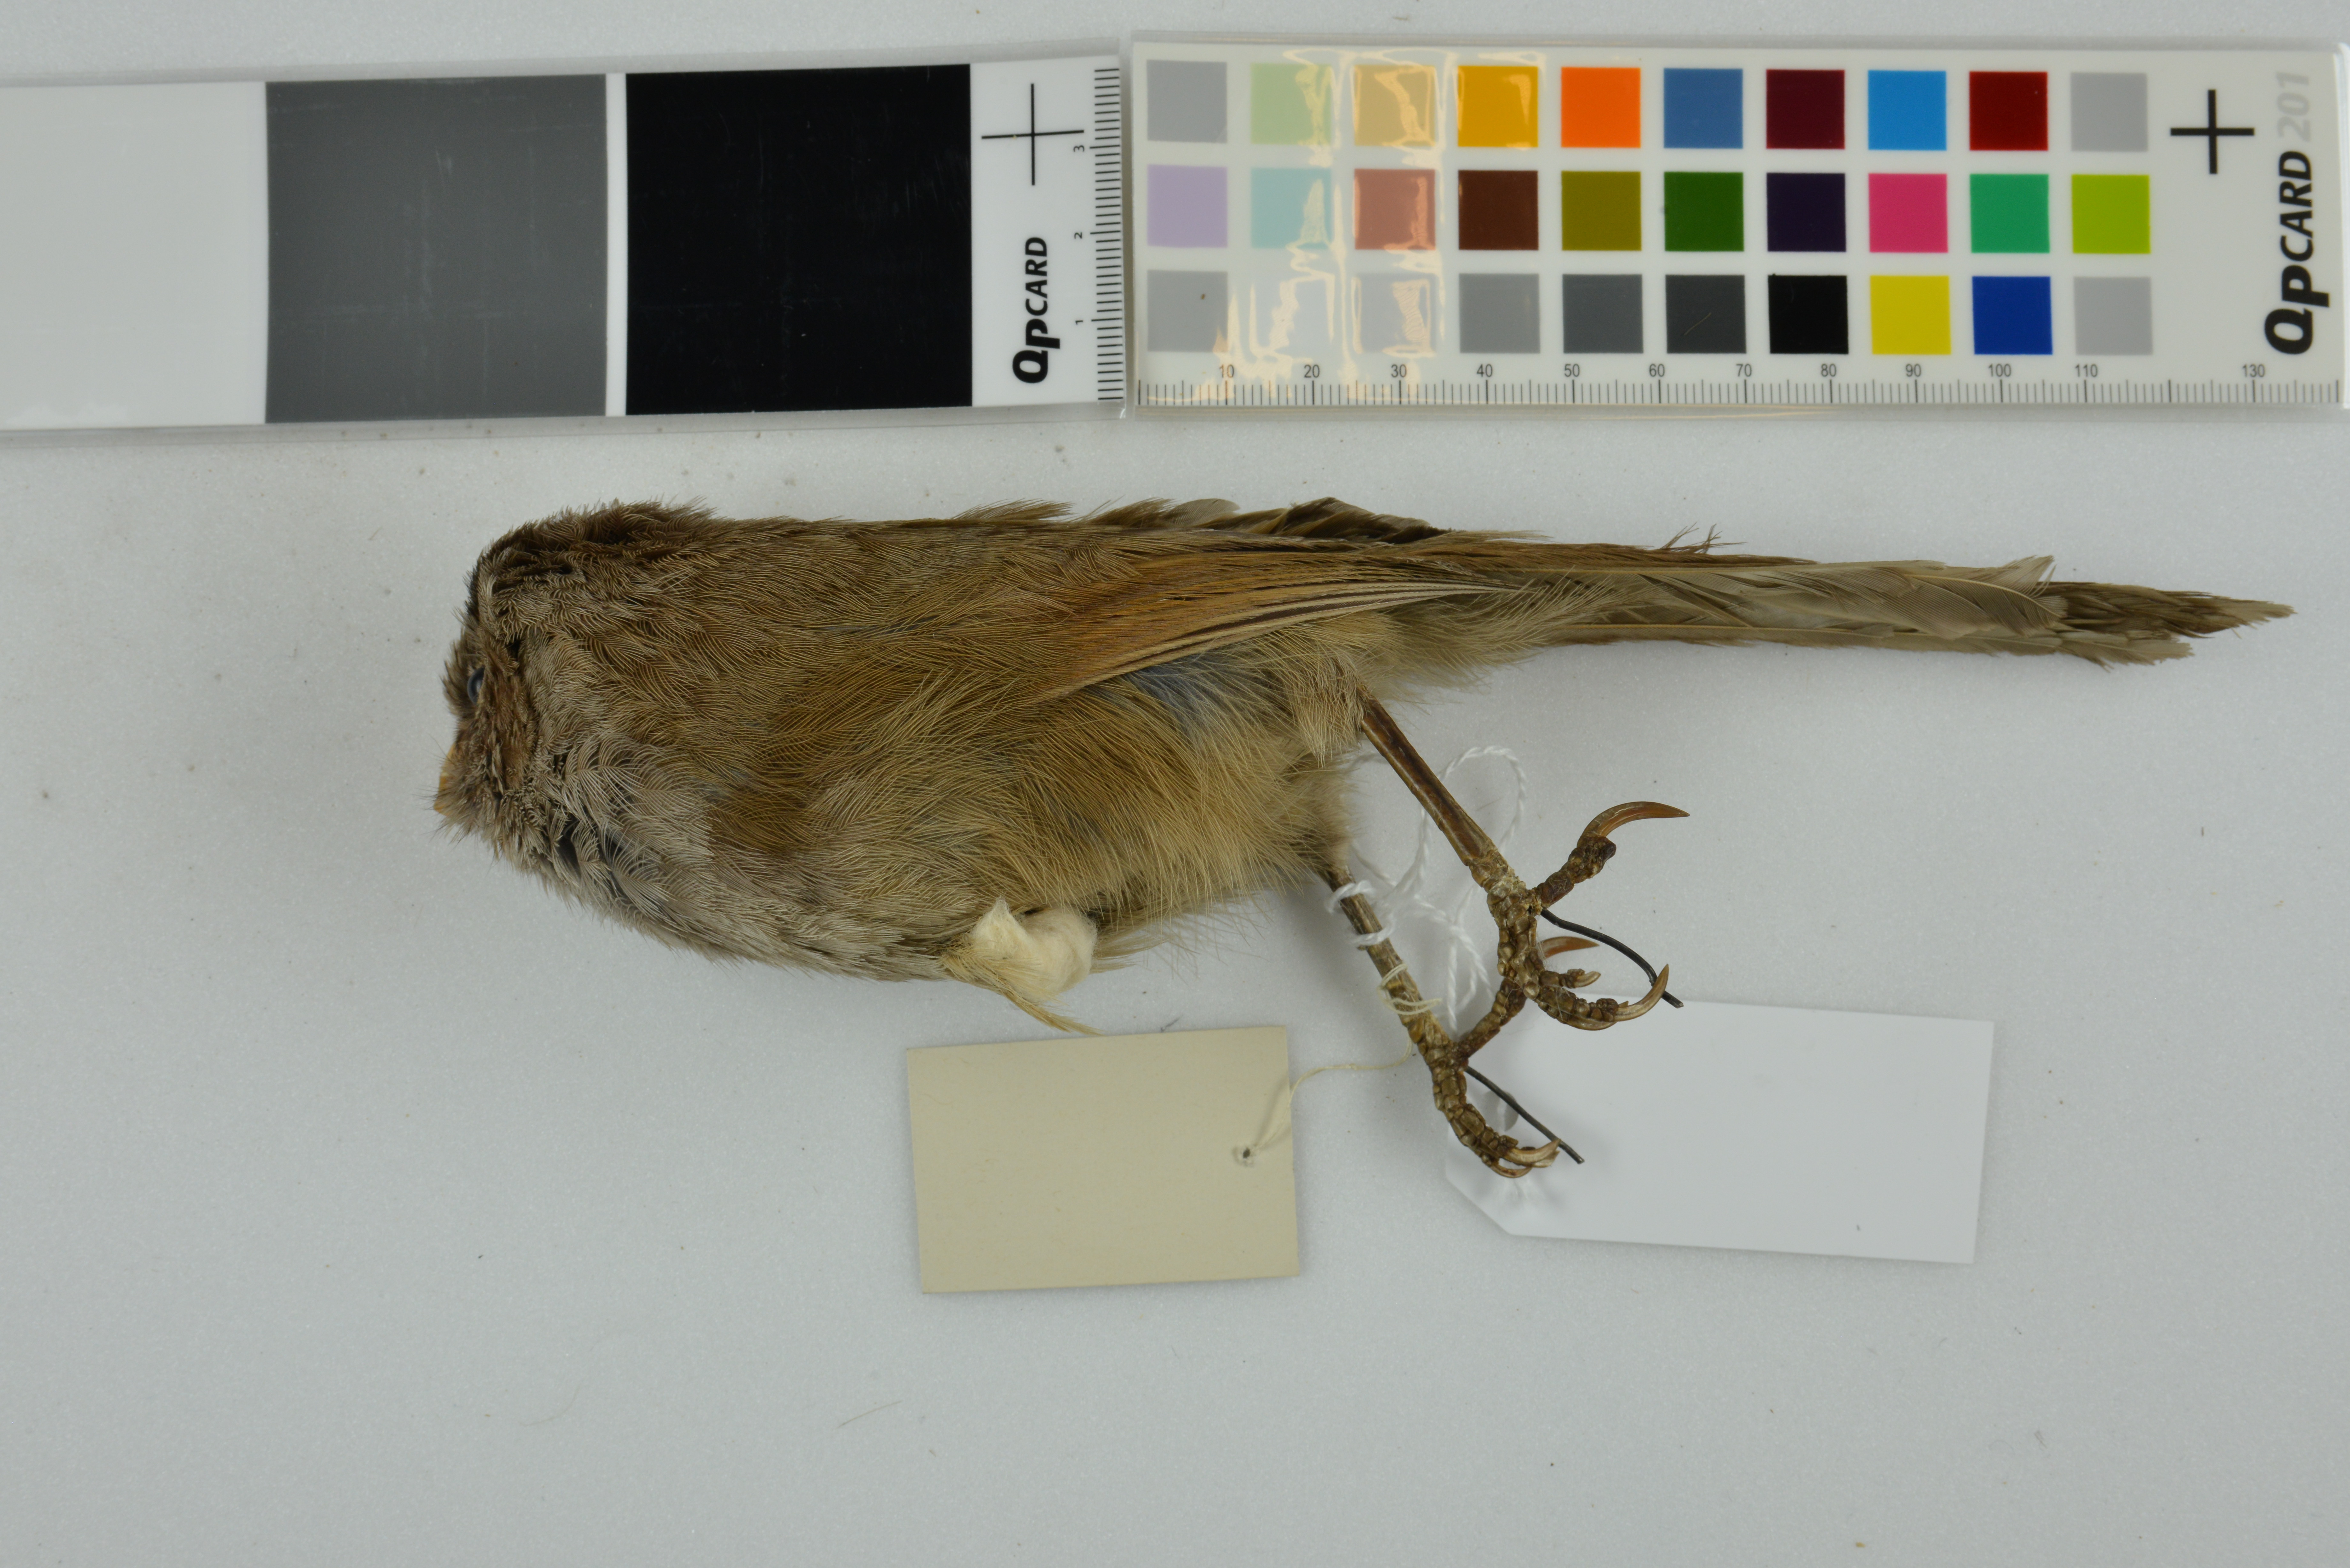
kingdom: Animalia
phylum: Chordata
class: Aves
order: Passeriformes
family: Sylviidae
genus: Cholornis
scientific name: Cholornis unicolor
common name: Brown parrotbill
